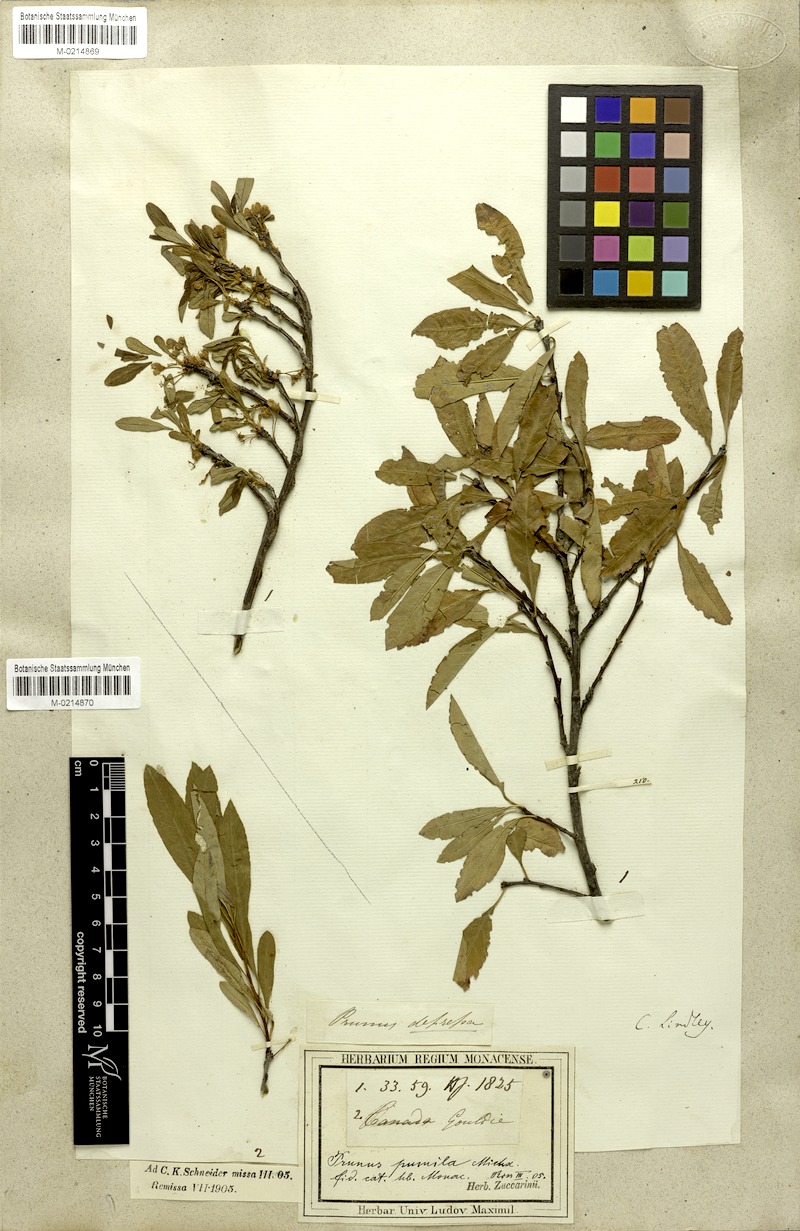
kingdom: Plantae
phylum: Tracheophyta
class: Magnoliopsida
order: Rosales
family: Rosaceae
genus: Prunus
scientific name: Prunus pumila
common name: Dwarf cherry
